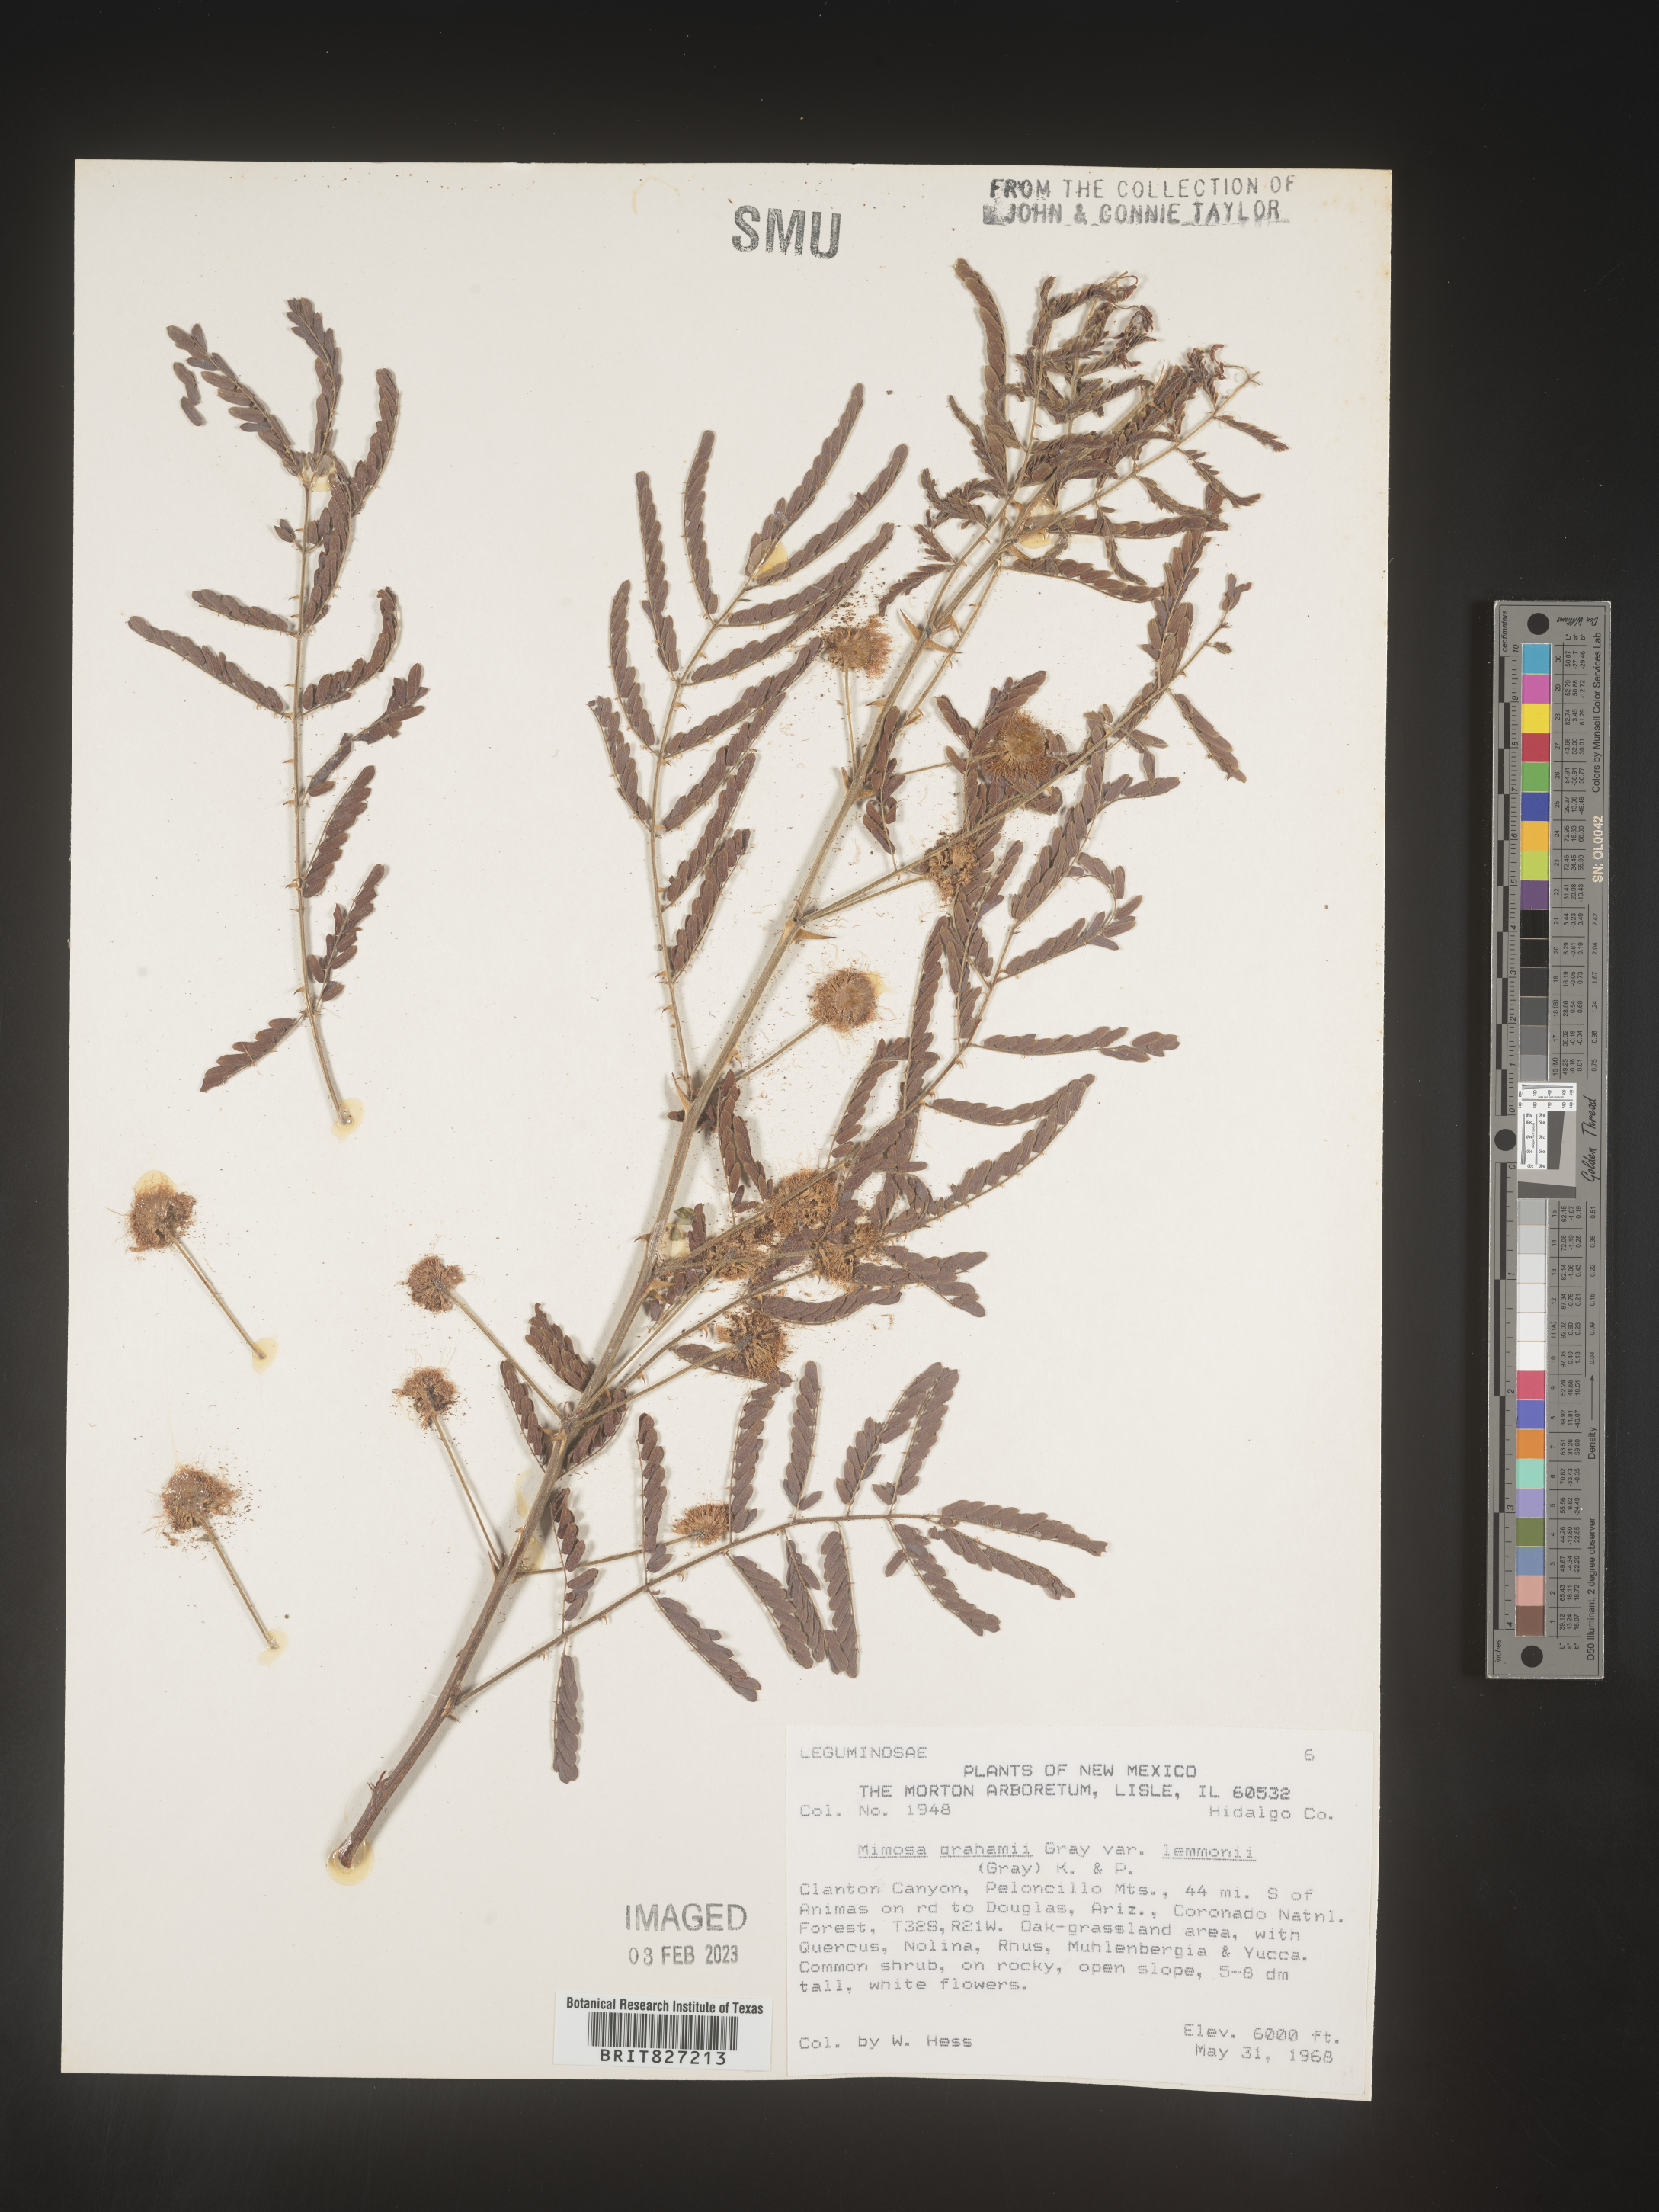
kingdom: Plantae
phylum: Tracheophyta
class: Magnoliopsida
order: Fabales
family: Fabaceae
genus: Mimosa
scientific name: Mimosa
